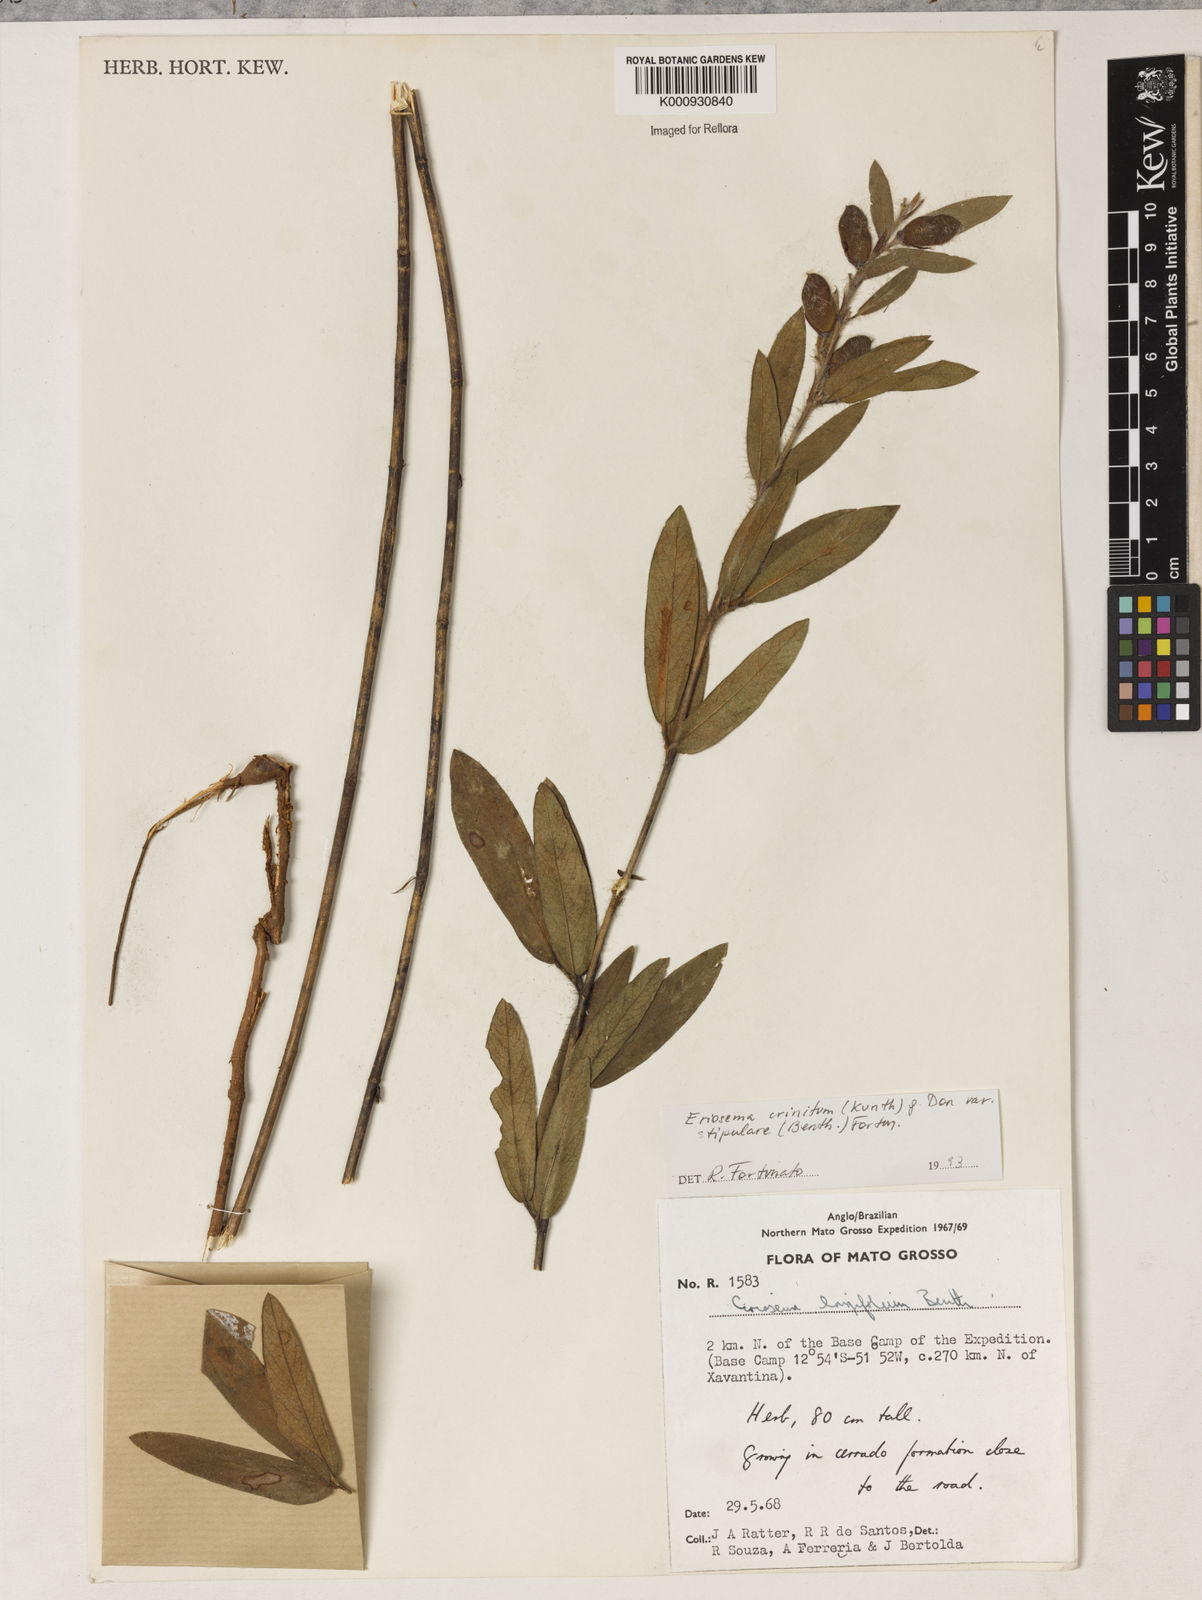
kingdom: Plantae
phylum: Tracheophyta
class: Magnoliopsida
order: Fabales
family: Fabaceae
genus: Eriosema
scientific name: Eriosema crinitum
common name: Sand pea
